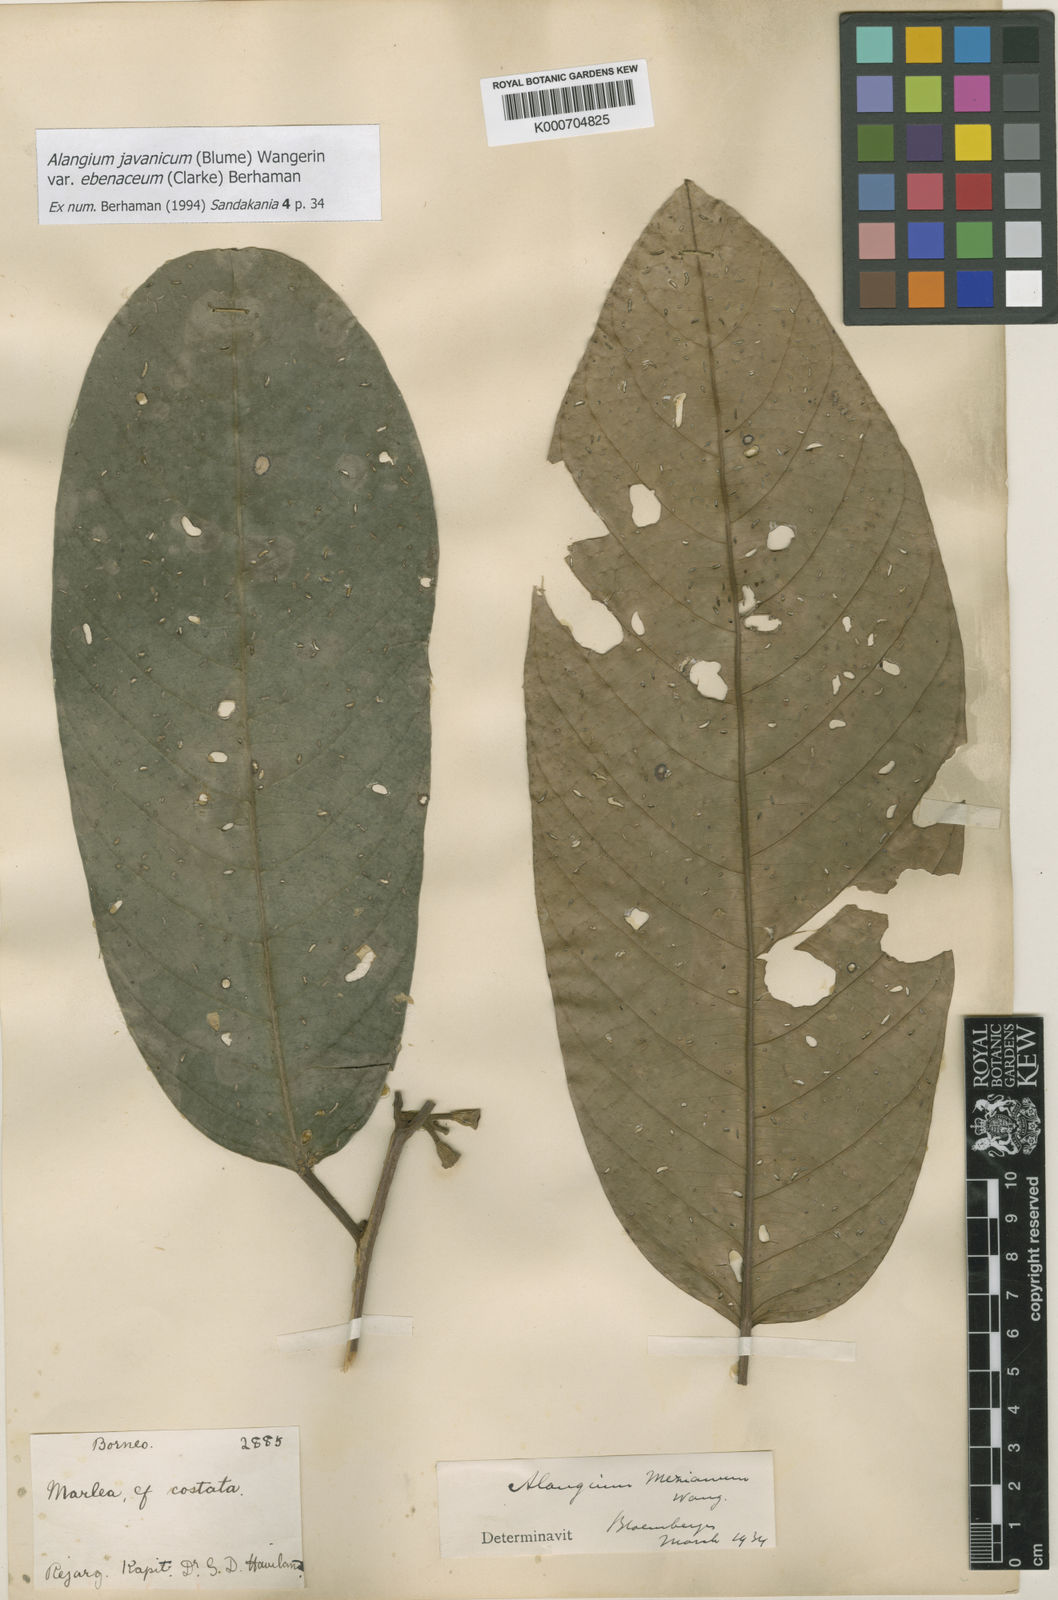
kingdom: Plantae
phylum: Tracheophyta
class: Magnoliopsida
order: Cornales
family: Cornaceae
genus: Alangium
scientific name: Alangium mezianum
